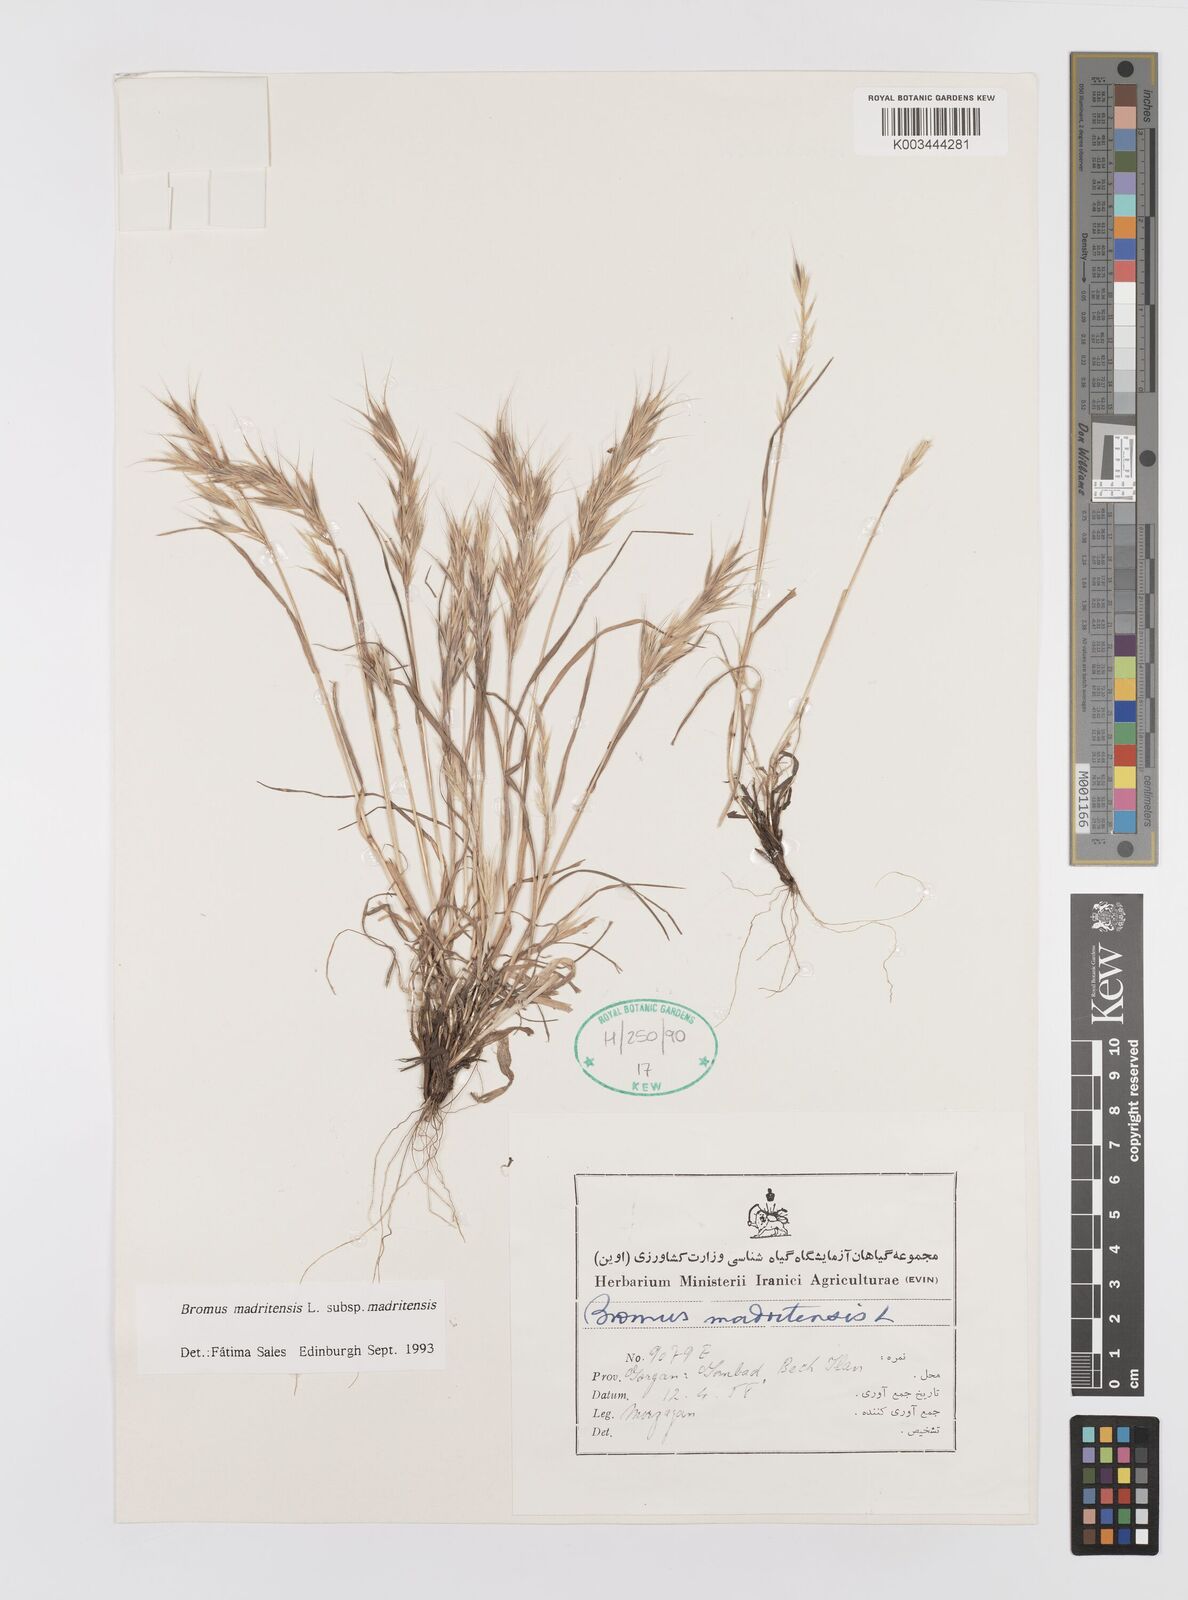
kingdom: Plantae
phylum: Tracheophyta
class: Liliopsida
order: Poales
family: Poaceae
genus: Bromus
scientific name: Bromus madritensis
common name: Compact brome
